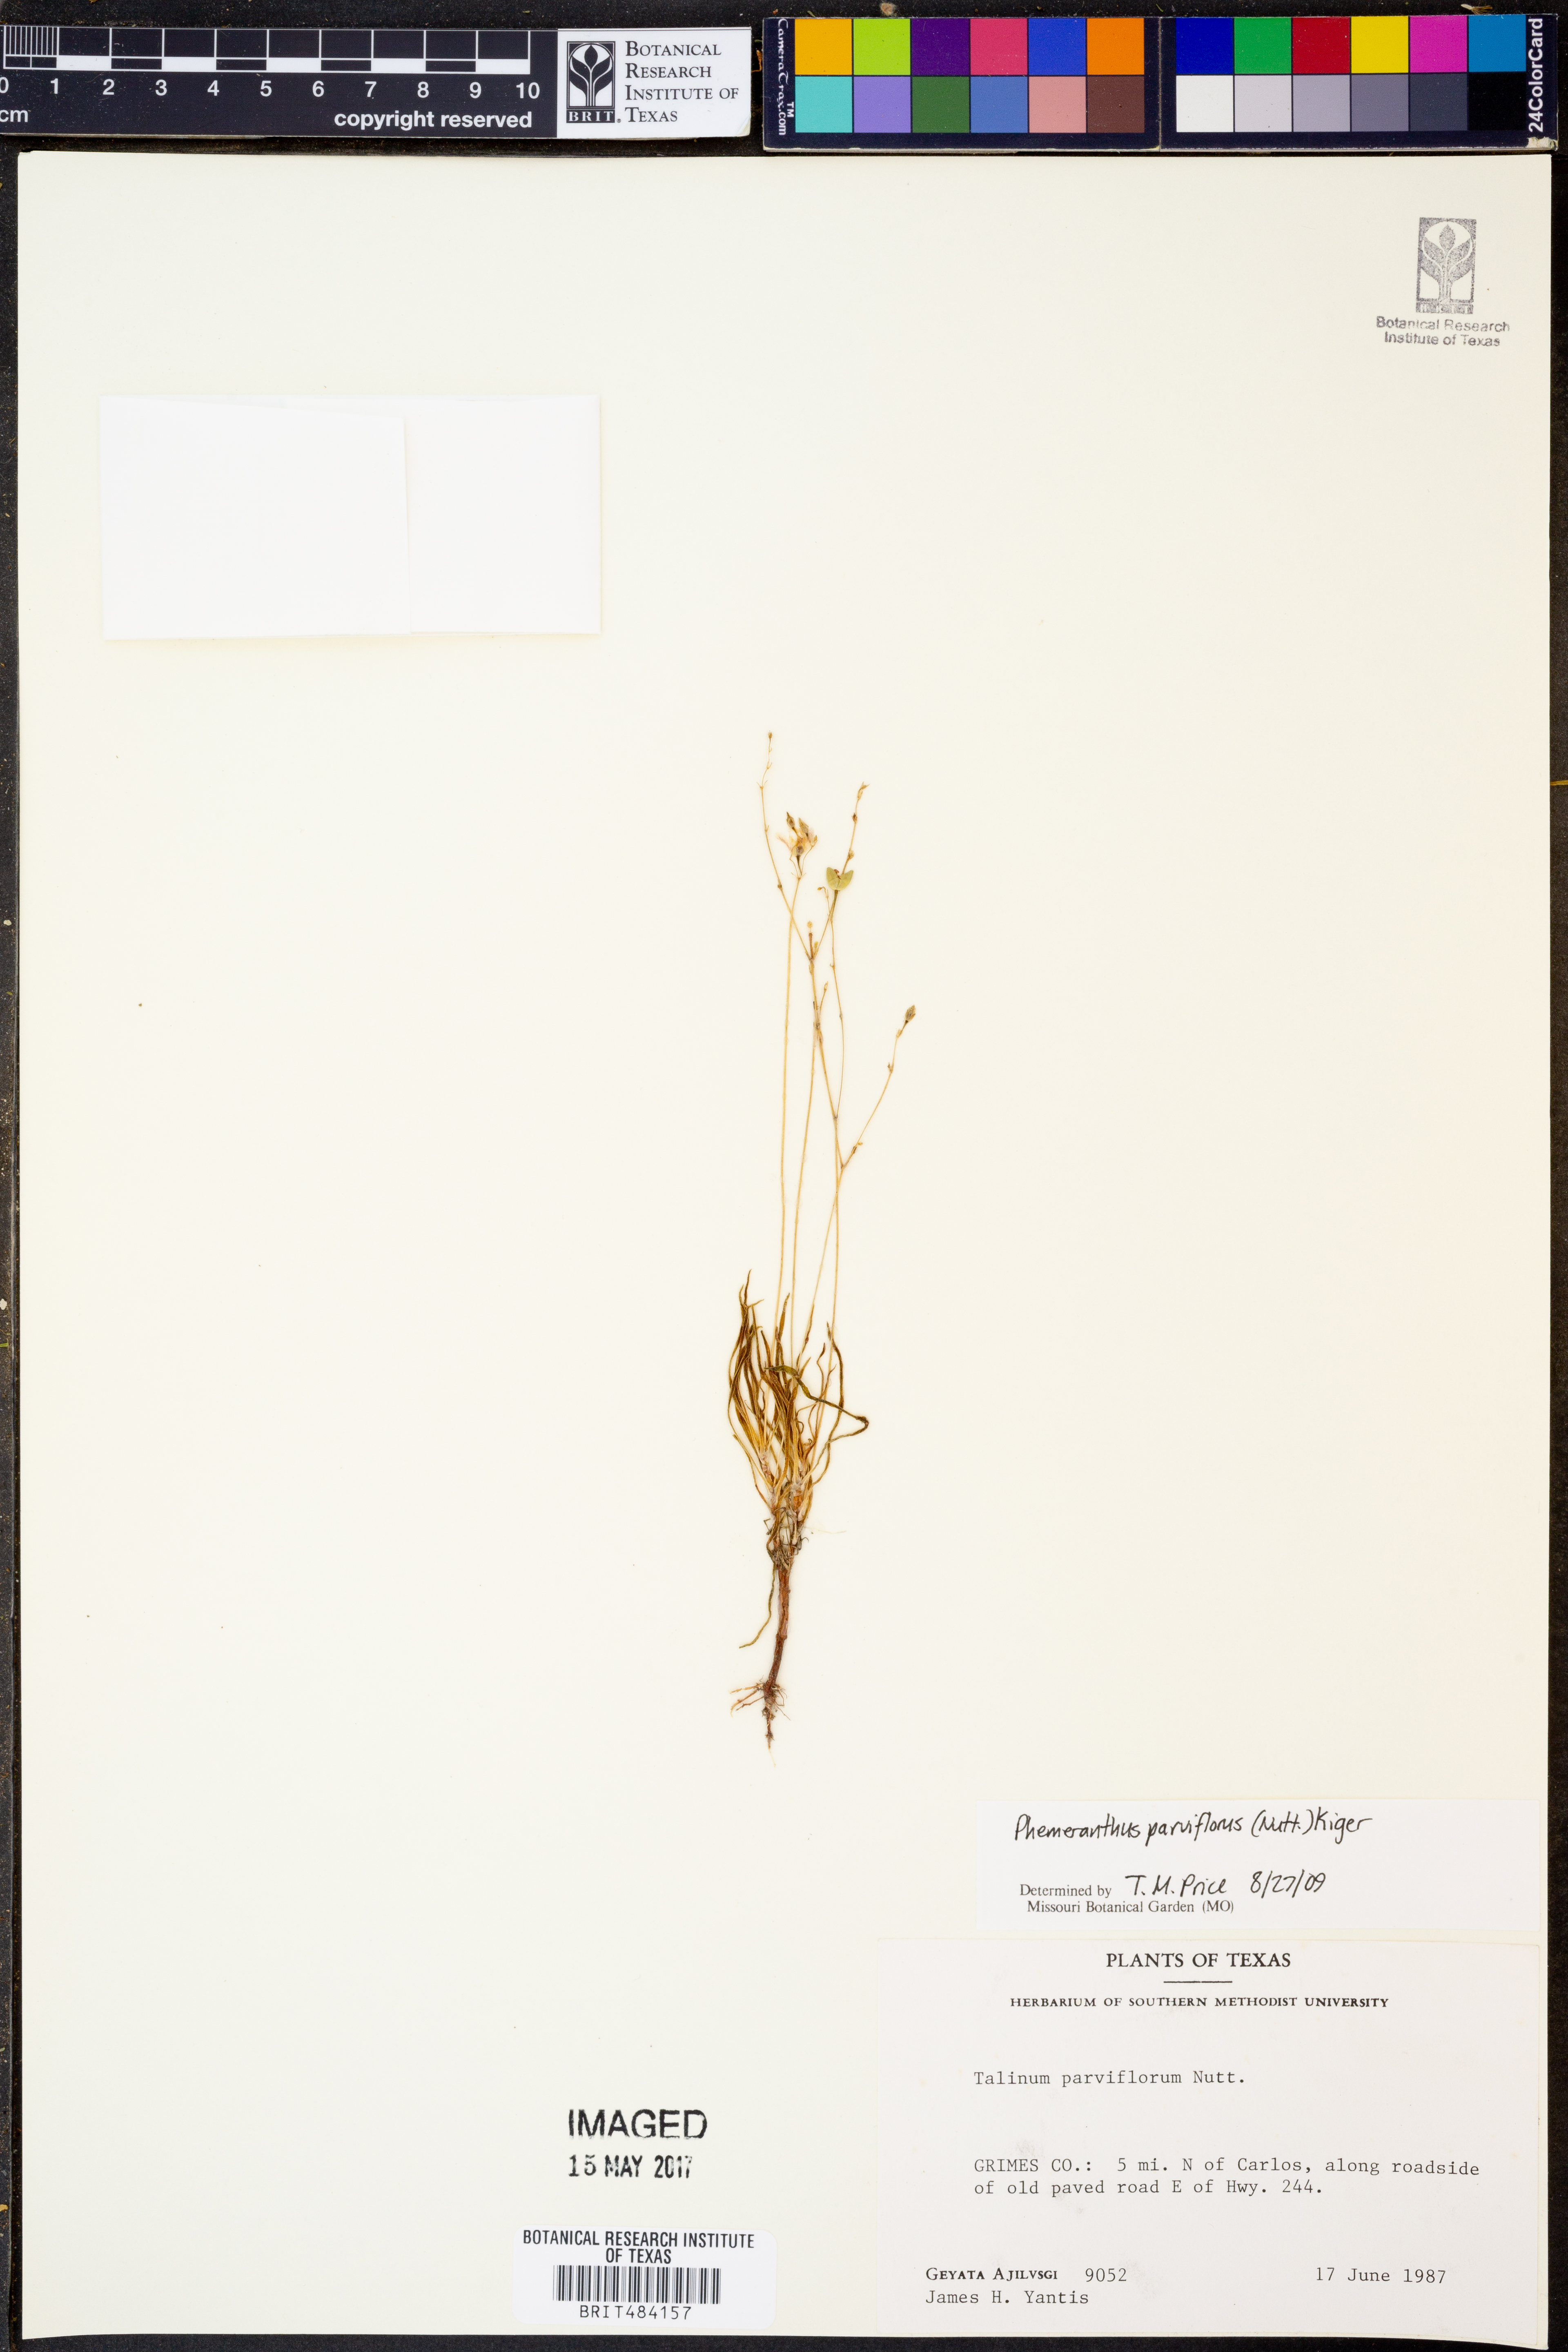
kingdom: Plantae
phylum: Tracheophyta
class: Magnoliopsida
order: Caryophyllales
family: Montiaceae
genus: Phemeranthus
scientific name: Phemeranthus parviflorus
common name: Sunbright
